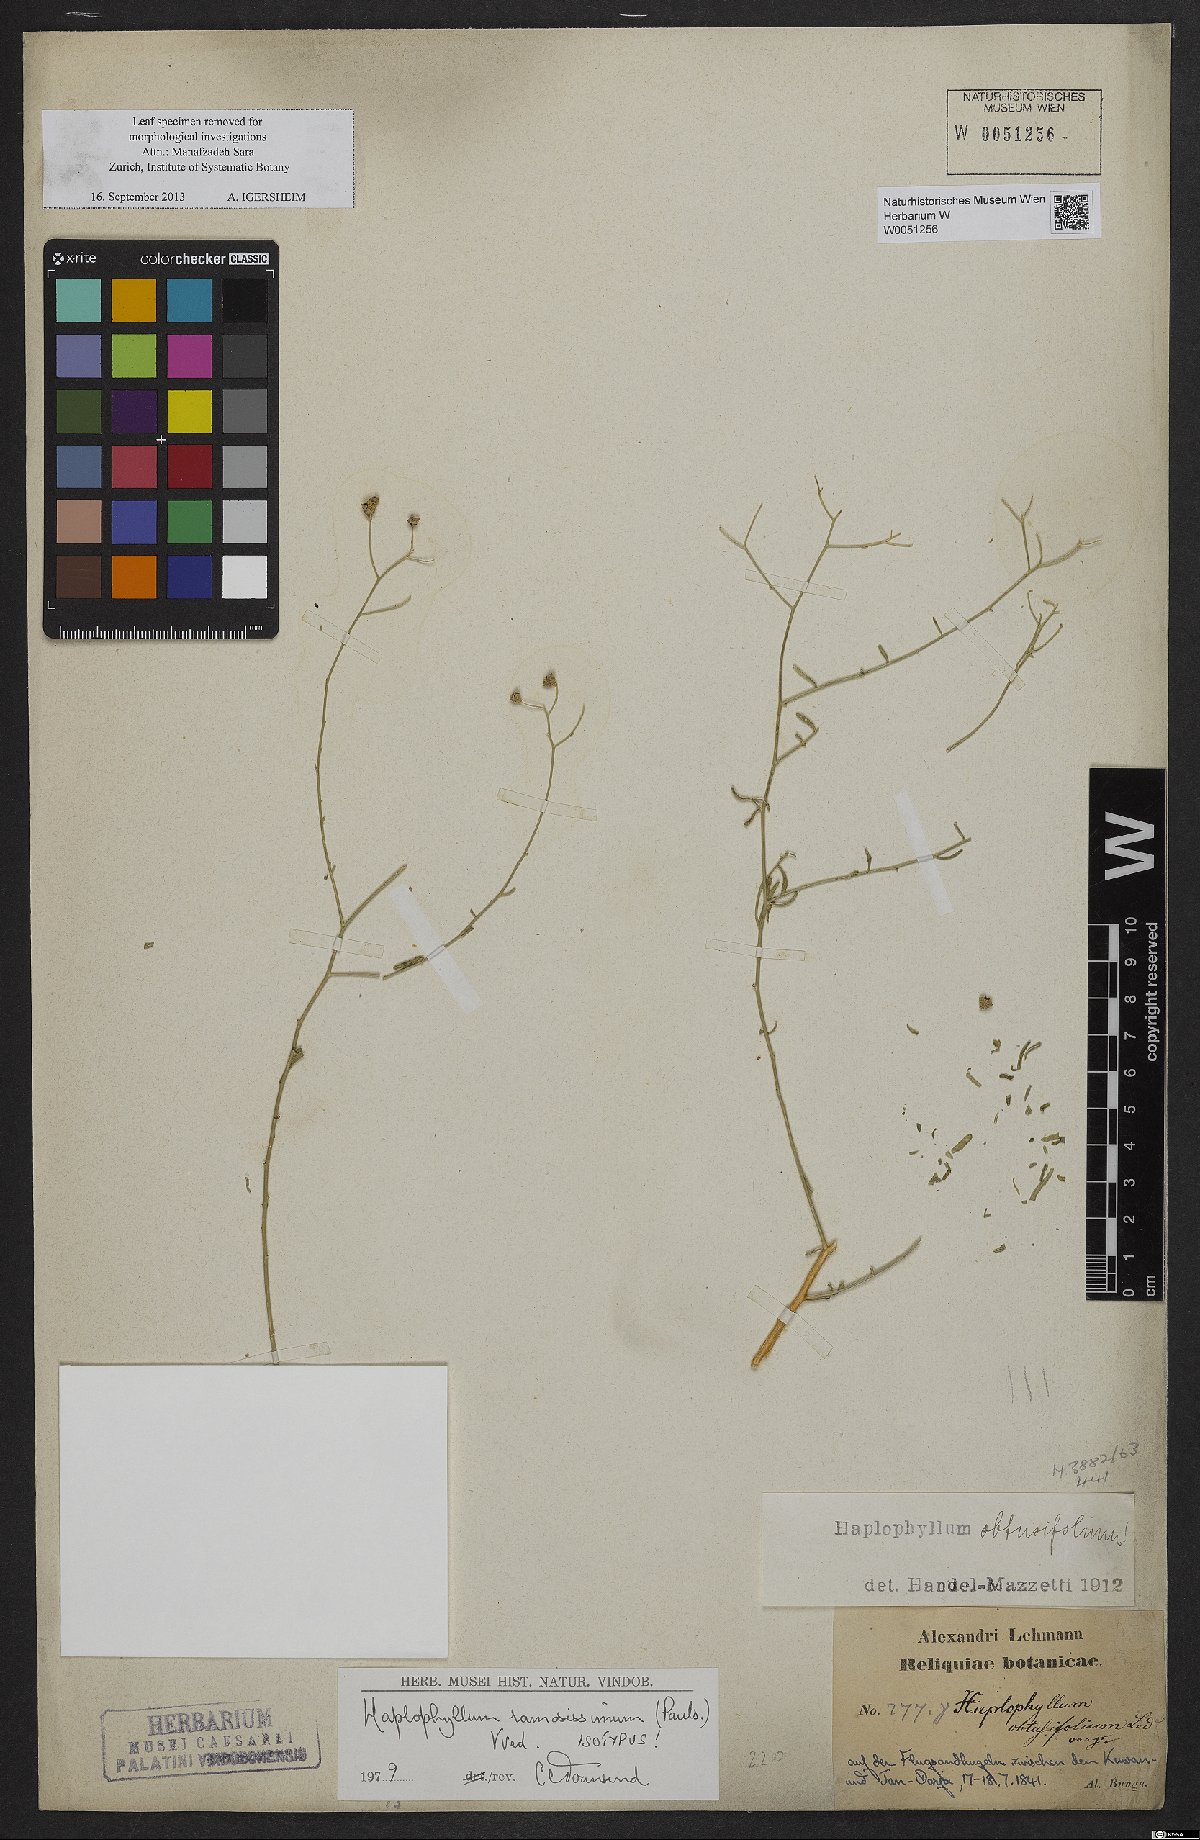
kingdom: Plantae
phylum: Tracheophyta
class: Magnoliopsida
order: Sapindales
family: Rutaceae
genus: Haplophyllum
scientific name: Haplophyllum ramosissimum
